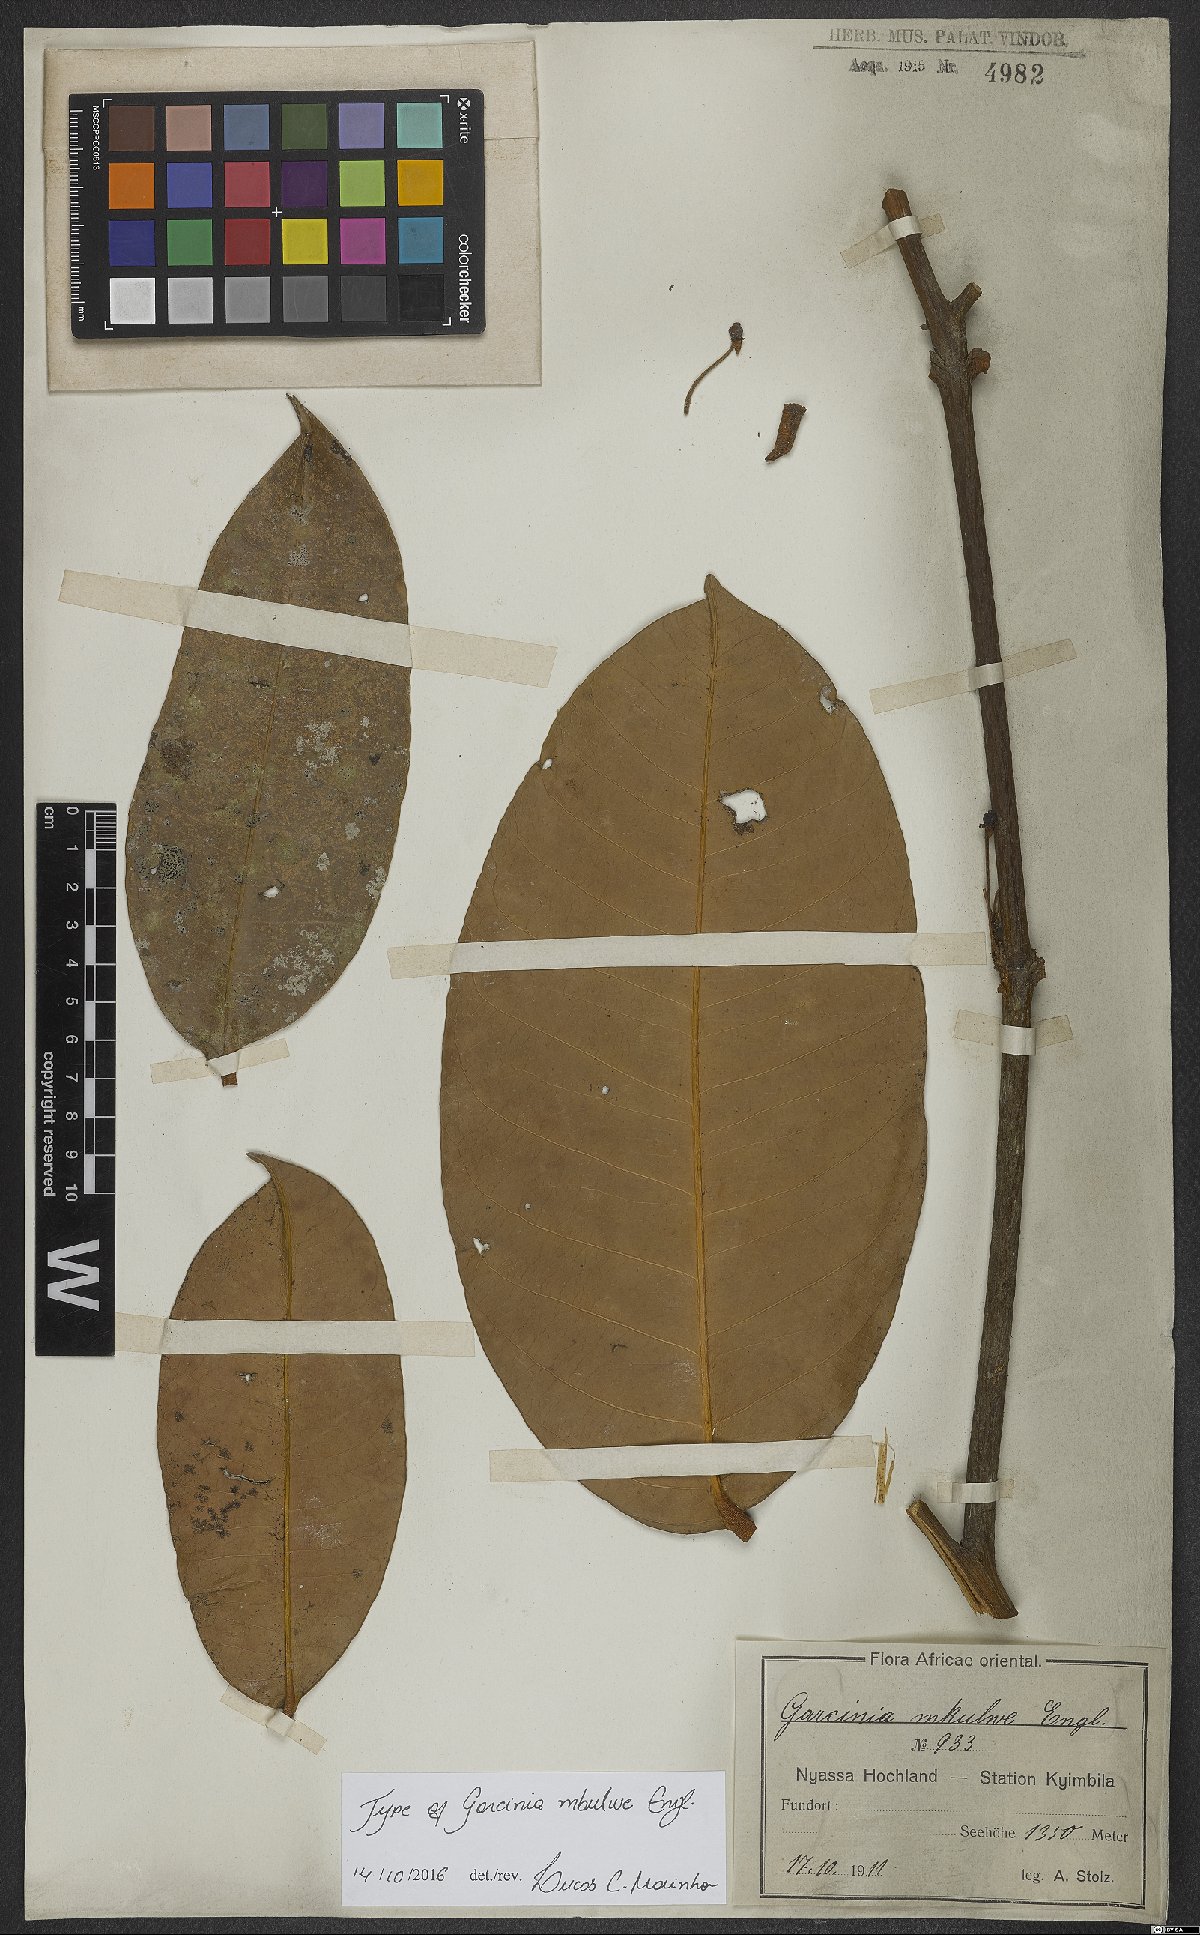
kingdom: Plantae
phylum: Tracheophyta
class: Magnoliopsida
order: Malpighiales
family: Clusiaceae
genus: Garcinia
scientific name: Garcinia smeathmannii
